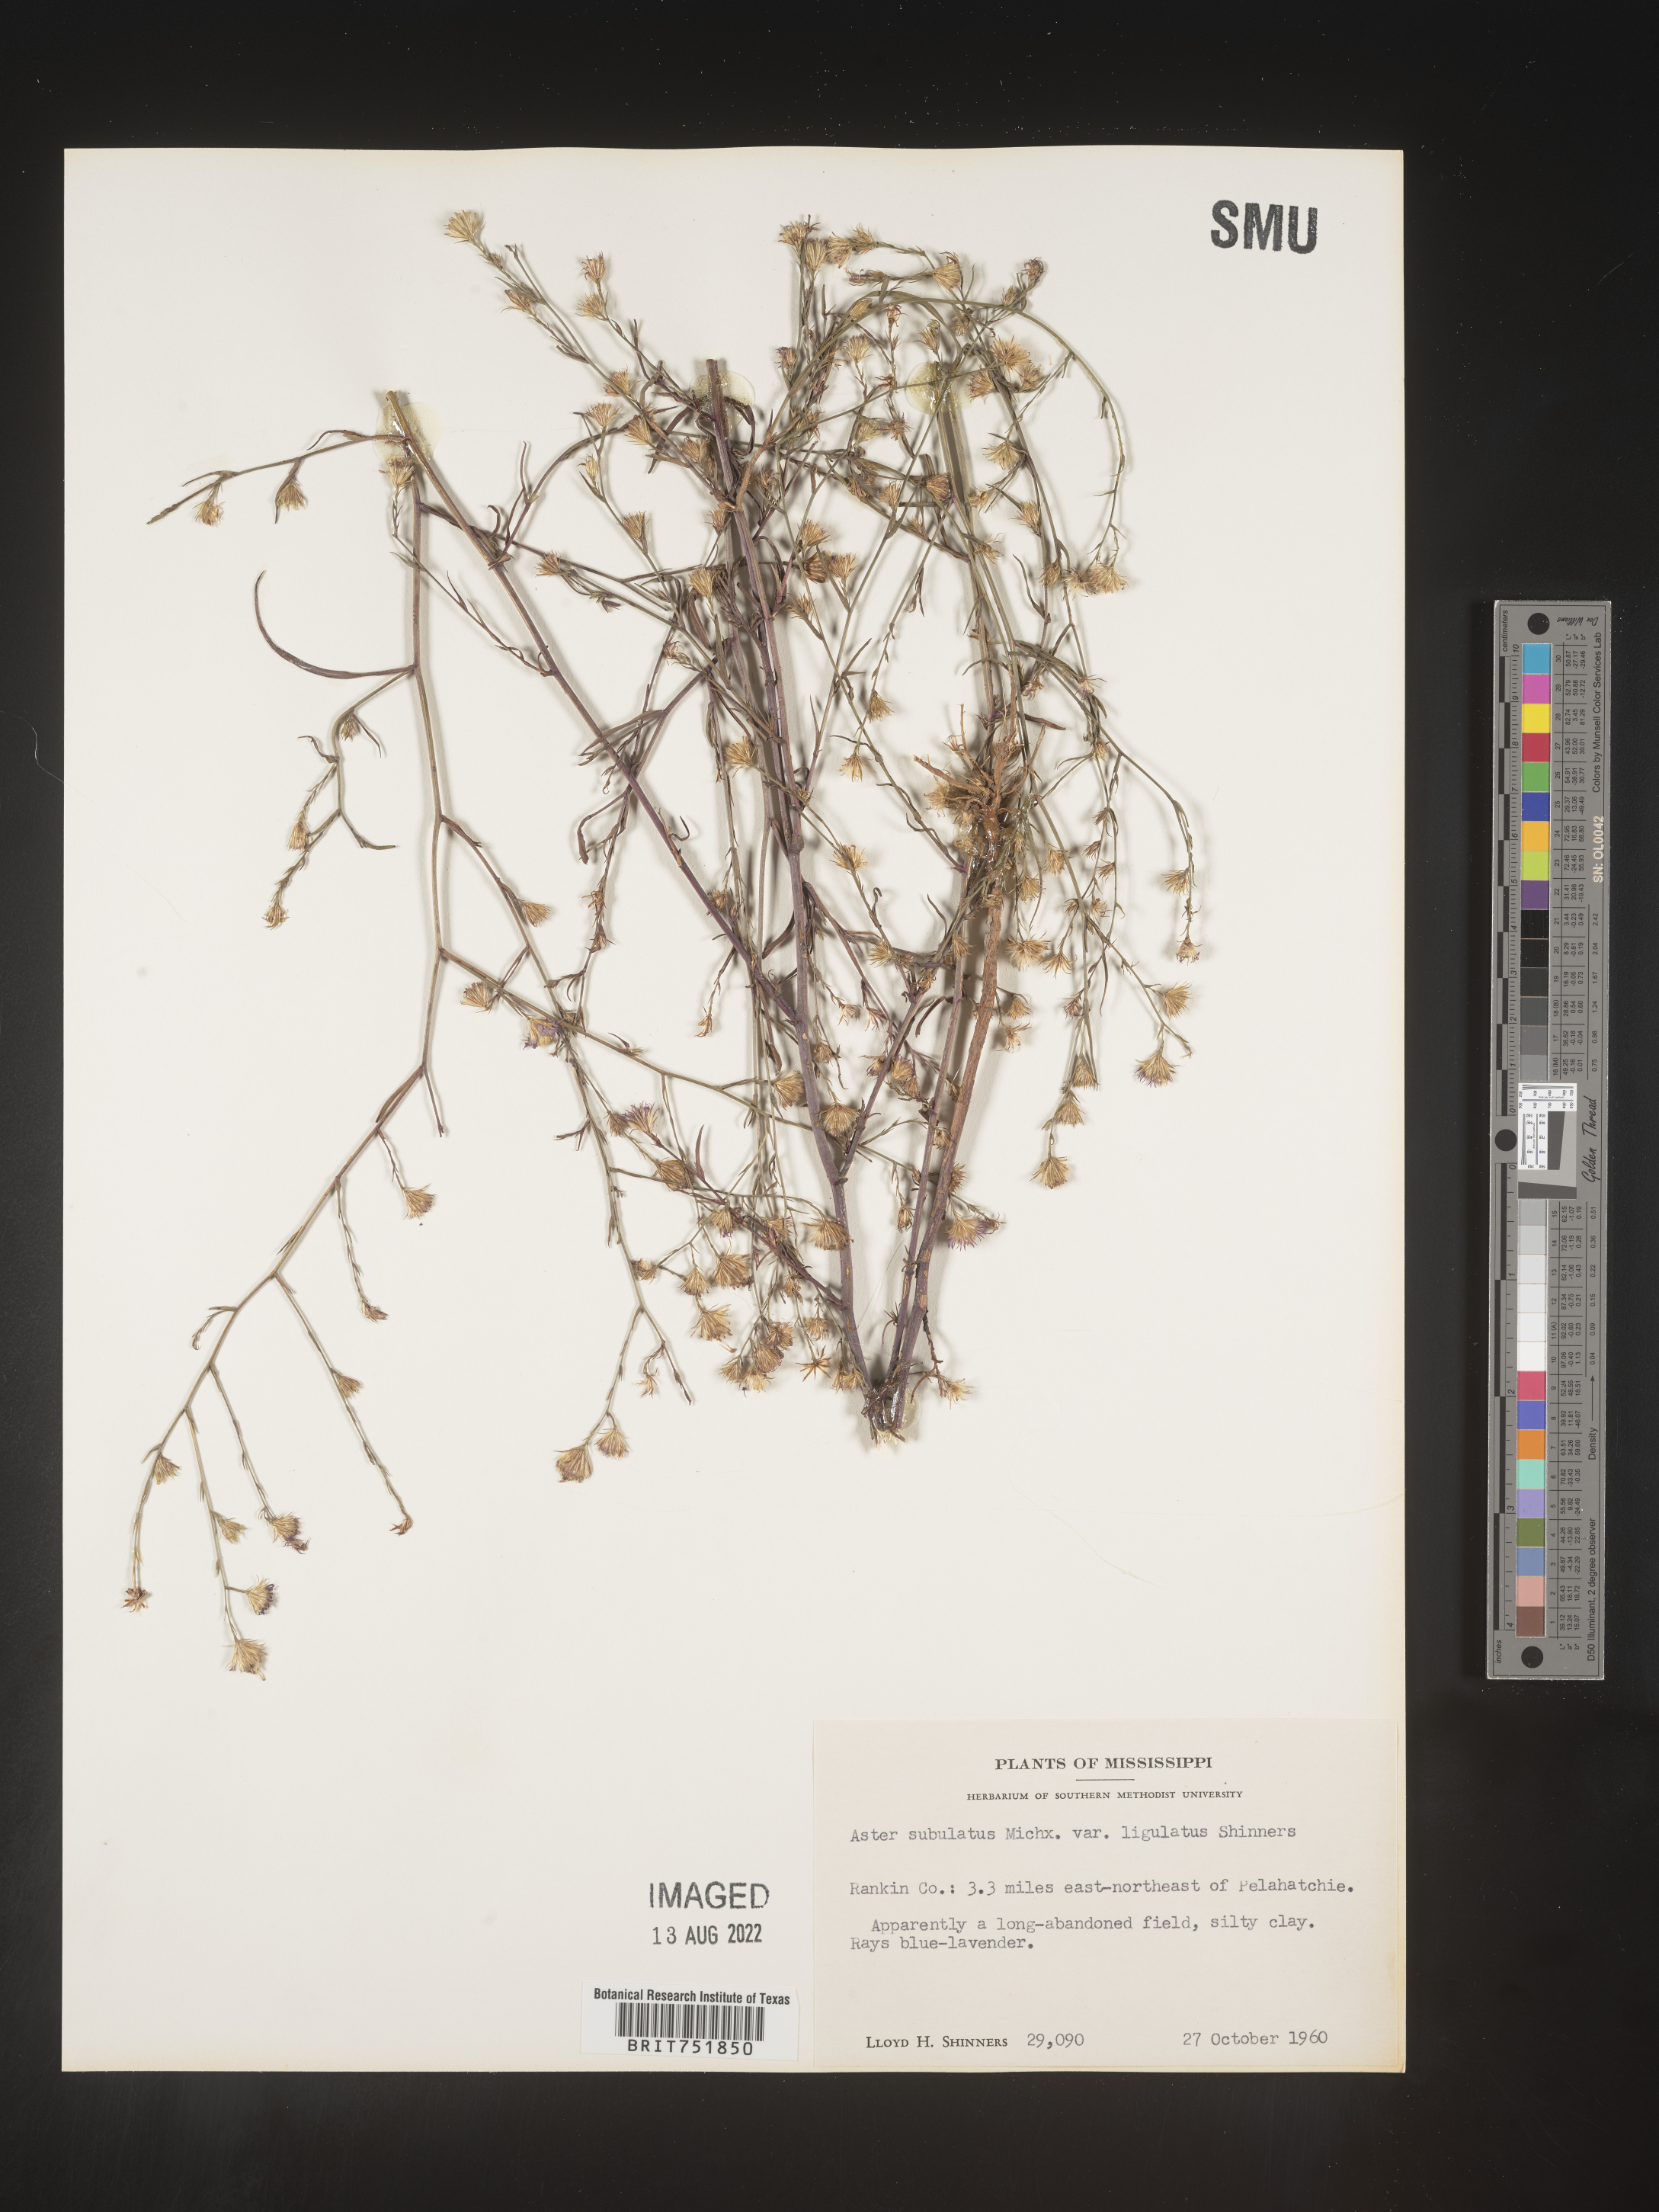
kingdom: Plantae
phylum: Tracheophyta
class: Magnoliopsida
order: Asterales
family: Asteraceae
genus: Symphyotrichum
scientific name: Symphyotrichum divaricatum
